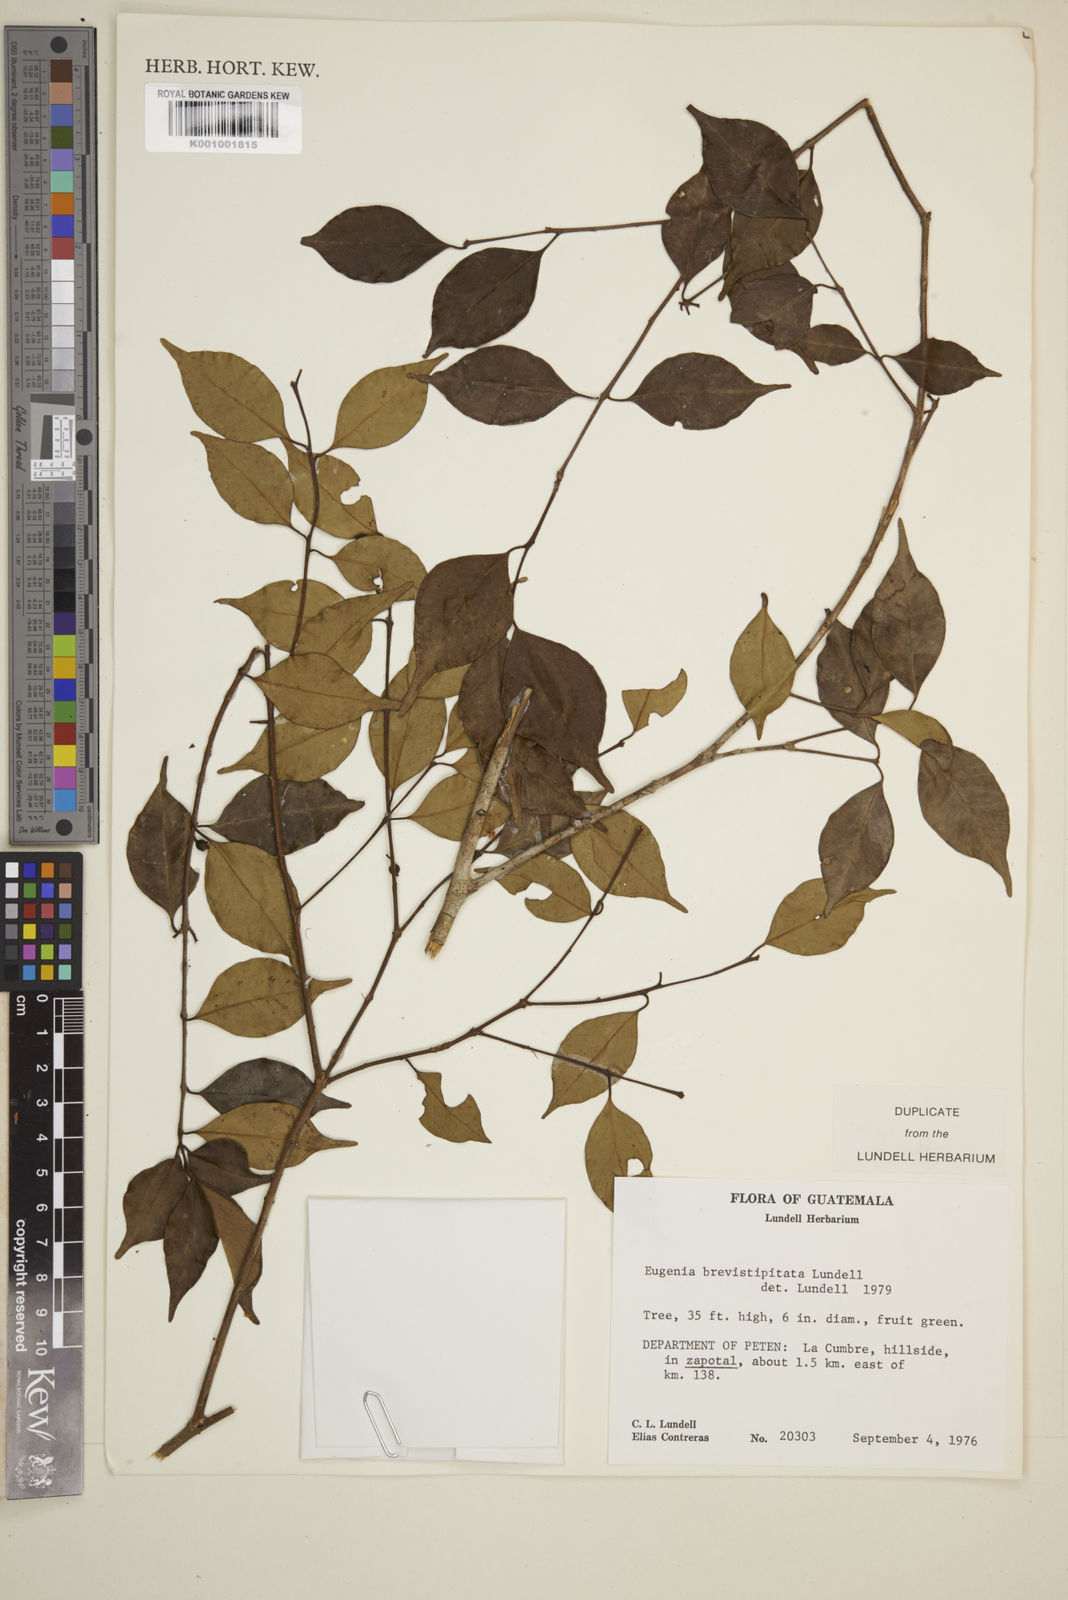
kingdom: Plantae
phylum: Tracheophyta
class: Magnoliopsida
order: Myrtales
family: Myrtaceae
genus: Eugenia
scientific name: Eugenia bumelioides
